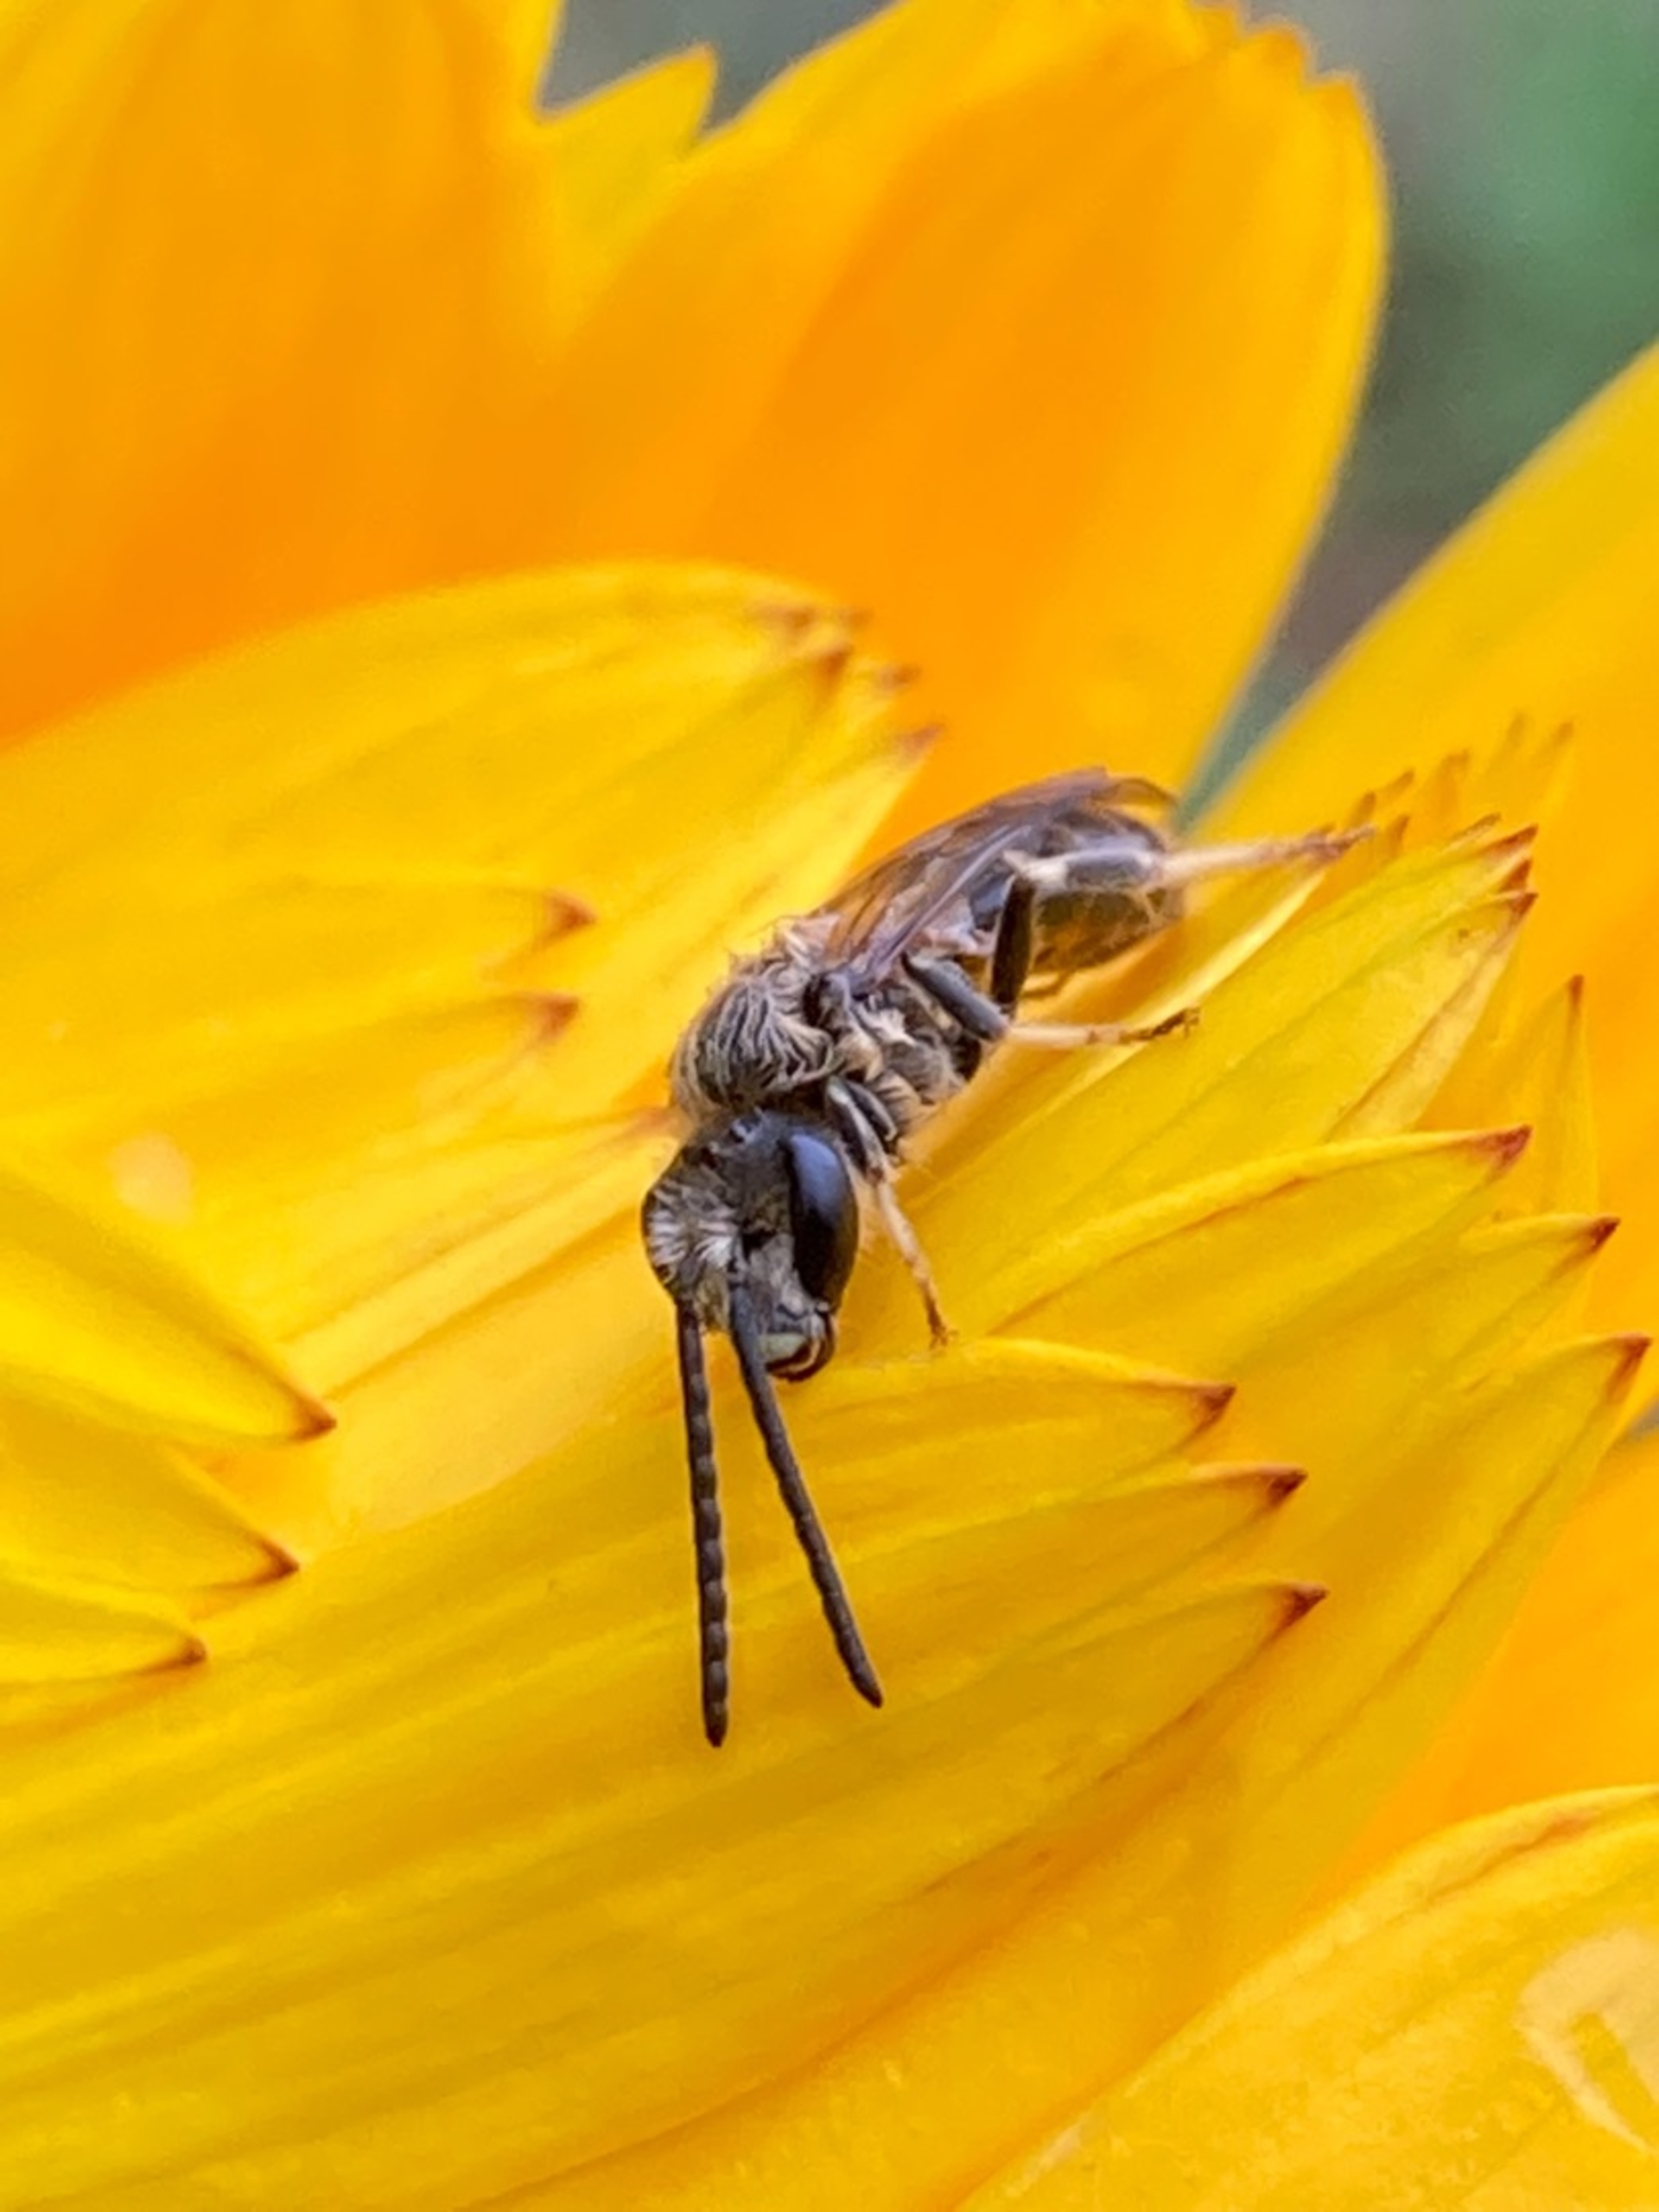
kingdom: Animalia
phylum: Arthropoda
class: Insecta
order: Hymenoptera
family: Halictidae
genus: Lasioglossum
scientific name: Lasioglossum
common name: Smalbier
